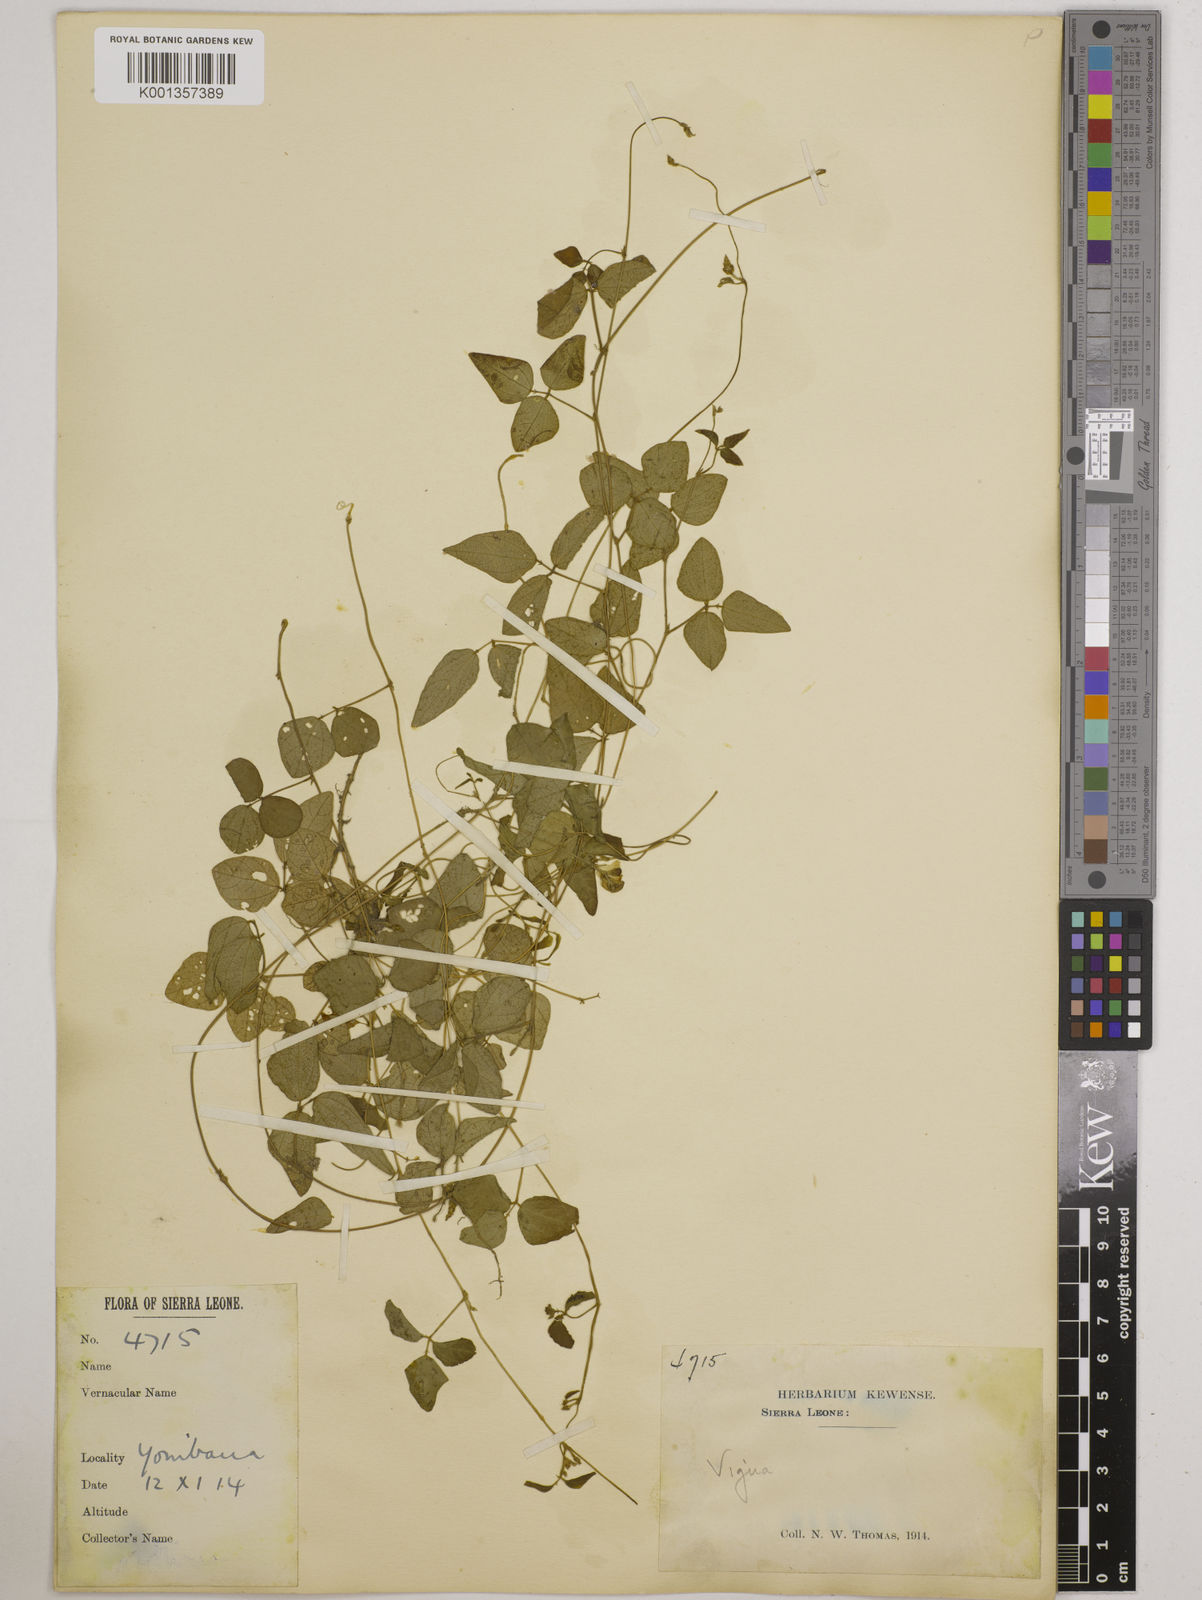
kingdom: Plantae
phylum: Tracheophyta
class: Magnoliopsida
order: Fabales
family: Fabaceae
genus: Vigna
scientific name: Vigna gracilis
